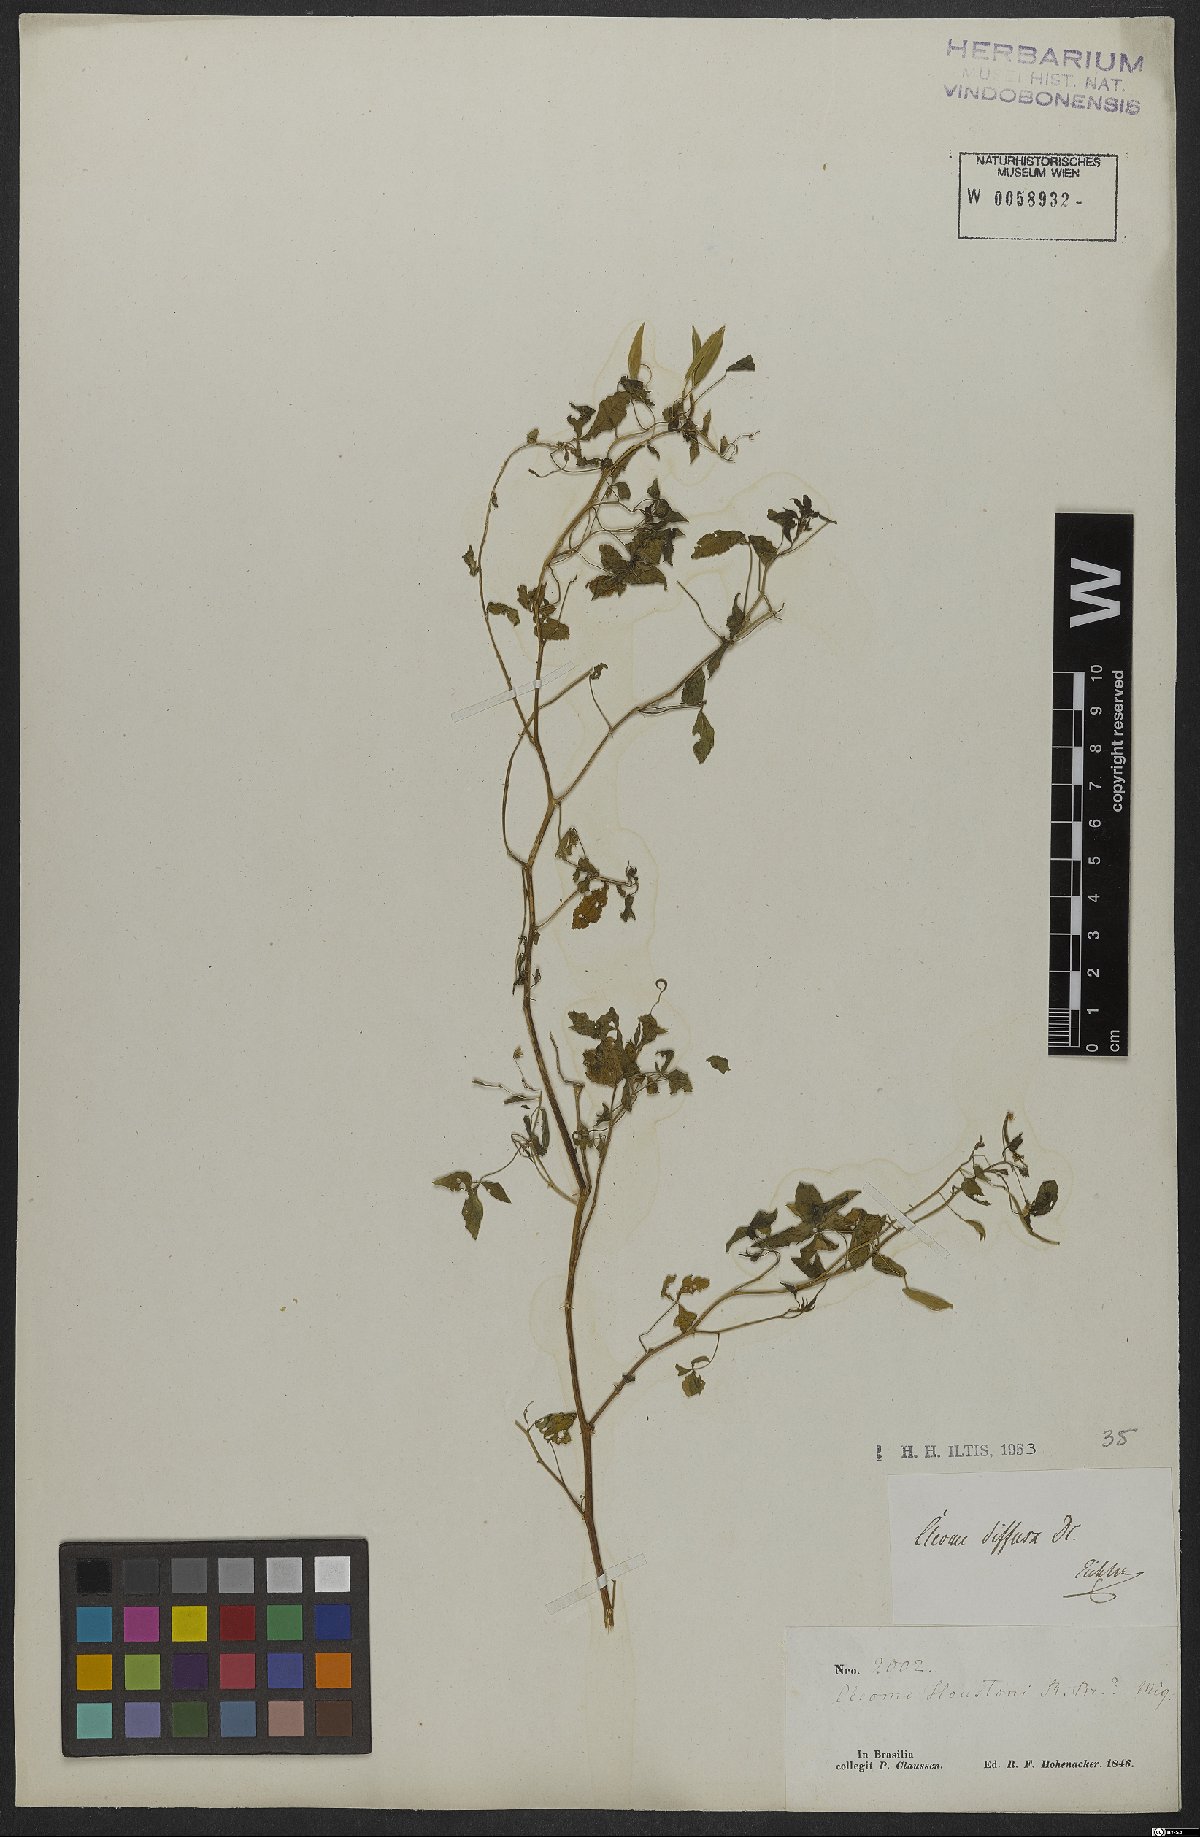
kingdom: Plantae
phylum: Tracheophyta
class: Magnoliopsida
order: Brassicales
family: Cleomaceae
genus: Tarenaya
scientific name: Tarenaya diffusa
